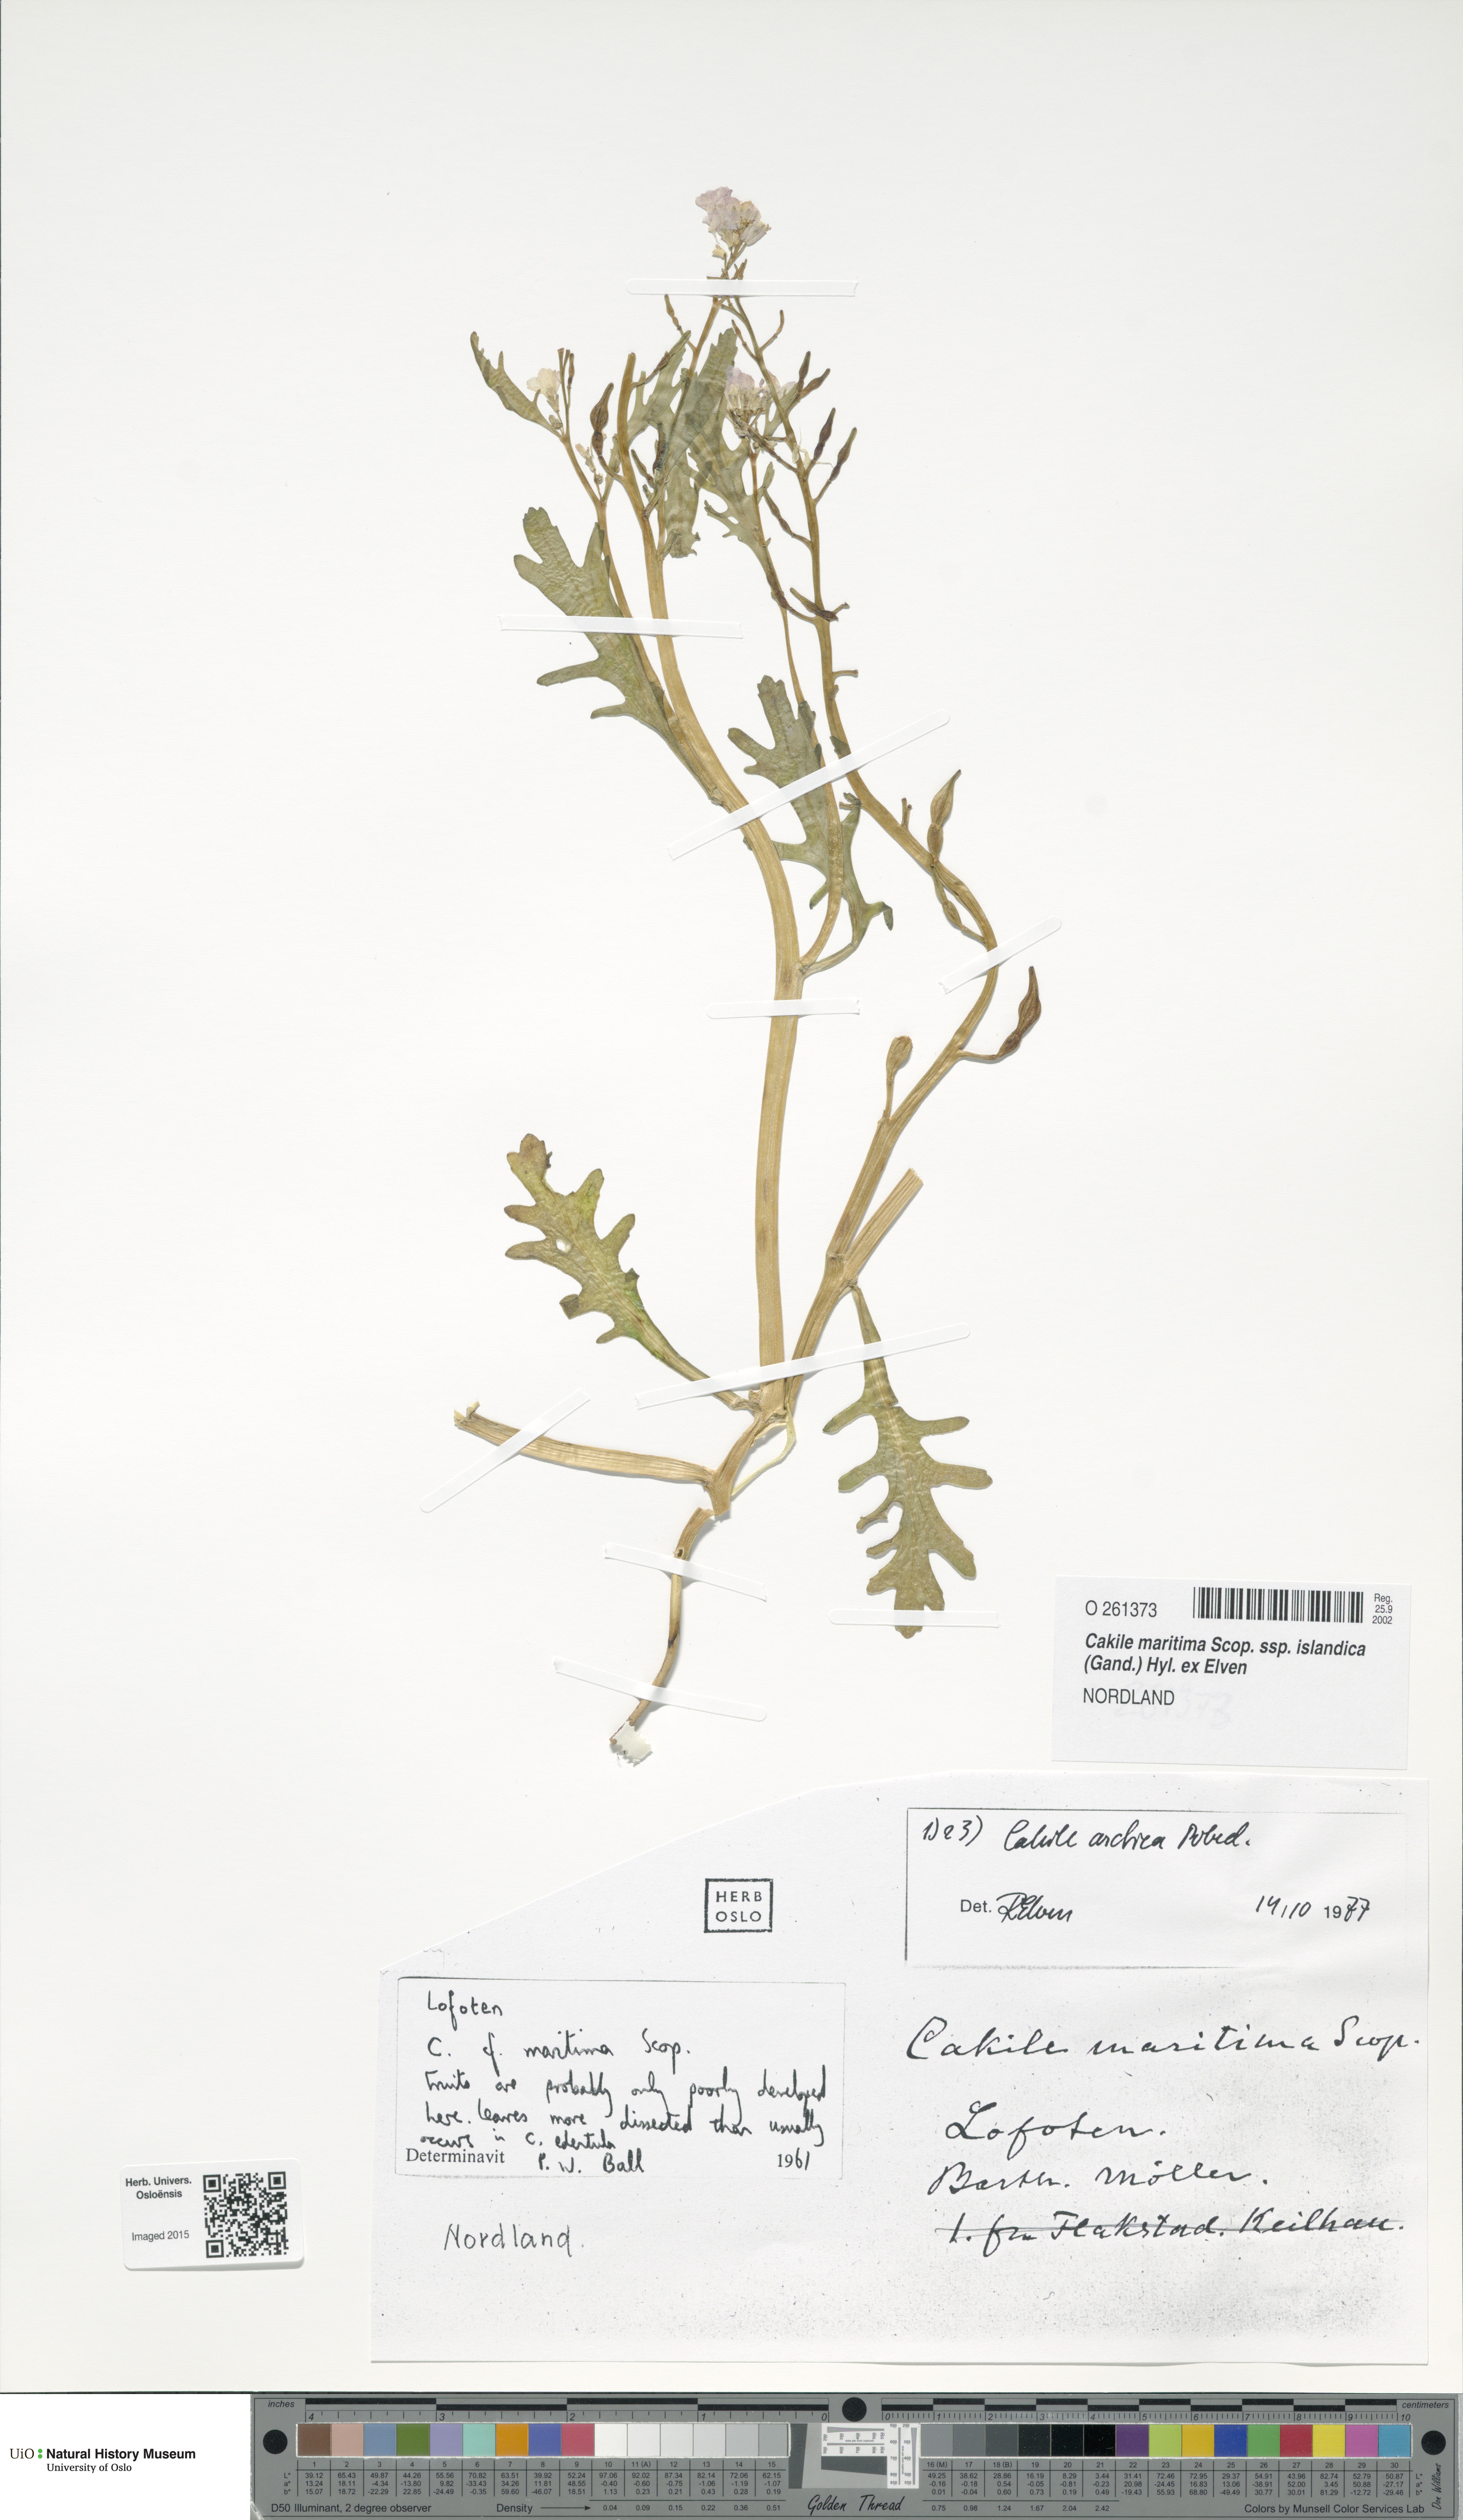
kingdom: Plantae
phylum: Tracheophyta
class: Magnoliopsida
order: Brassicales
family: Brassicaceae
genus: Cakile
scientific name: Cakile arctica
